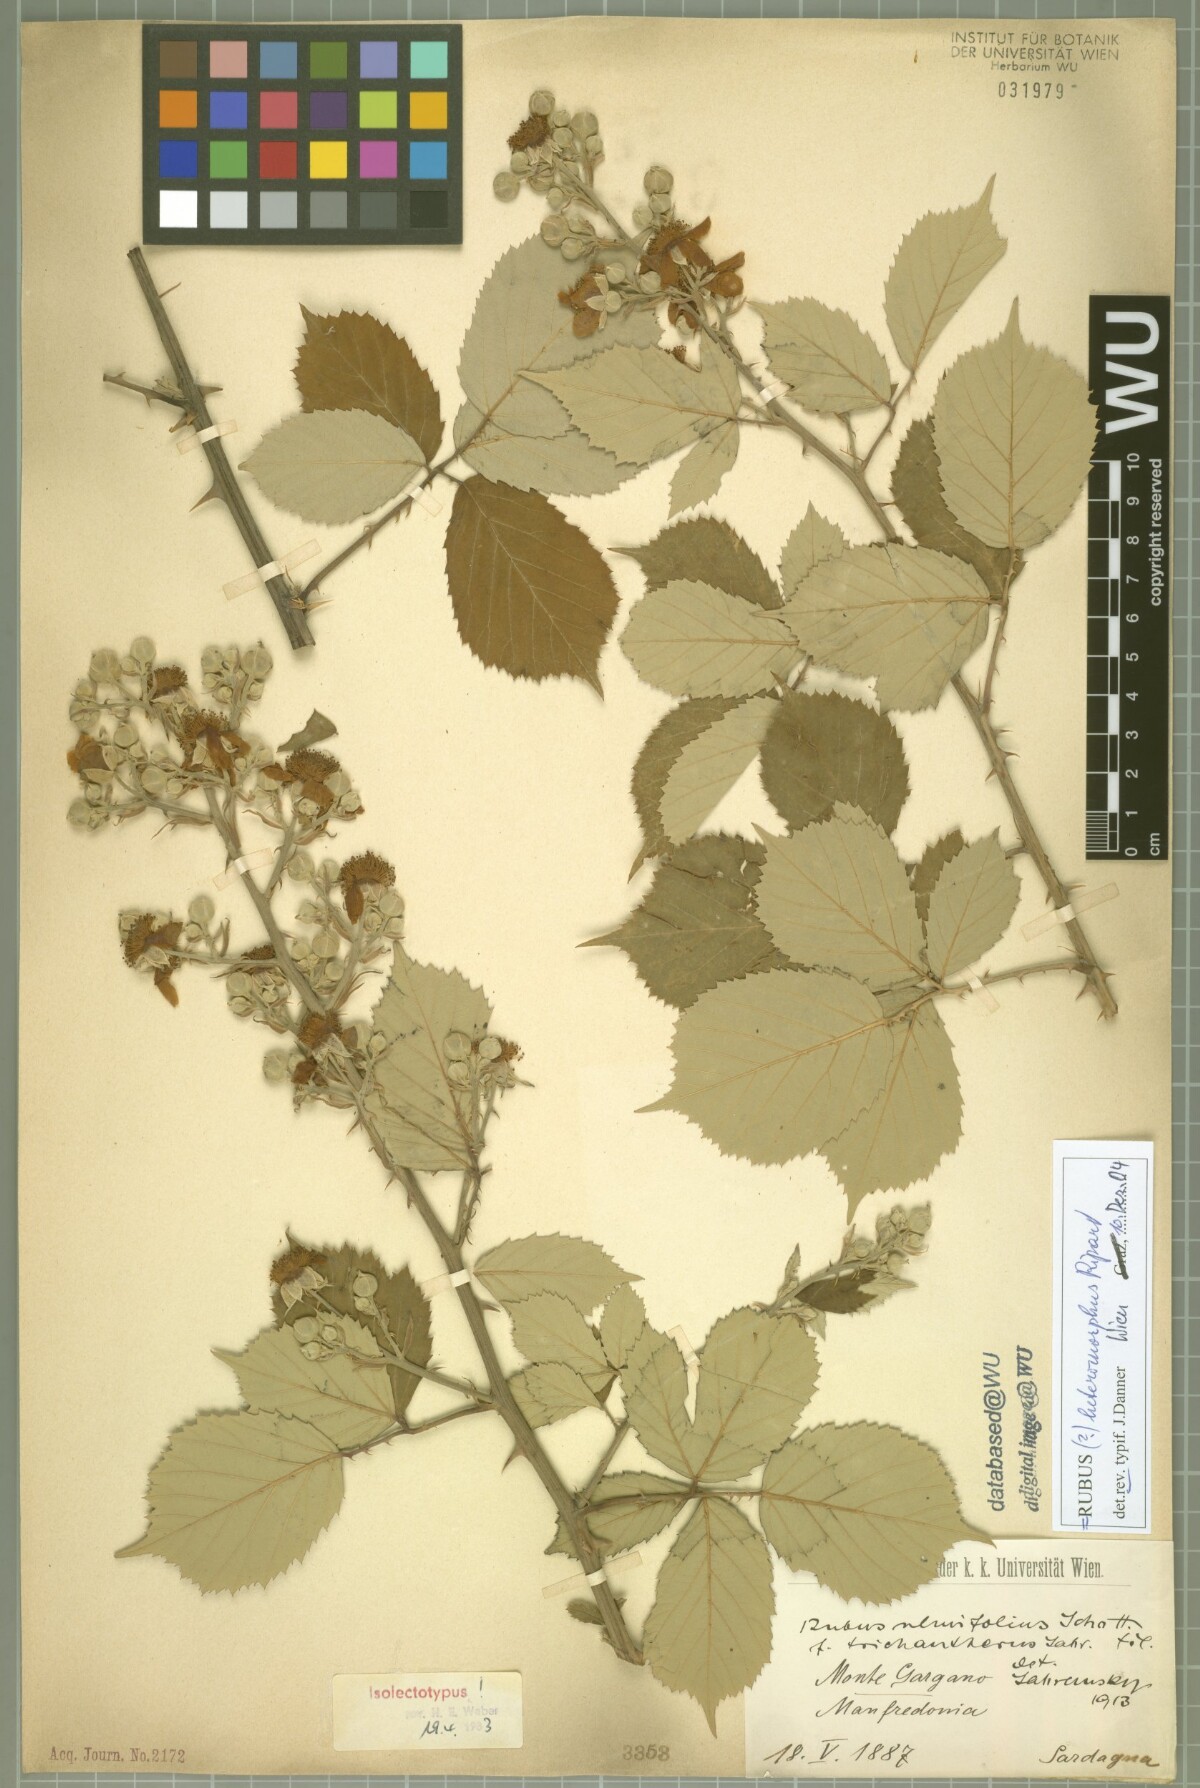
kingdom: Plantae
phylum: Tracheophyta
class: Magnoliopsida
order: Rosales
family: Rosaceae
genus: Rubus
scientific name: Rubus ulmifolius
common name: Elmleaf blackberry
